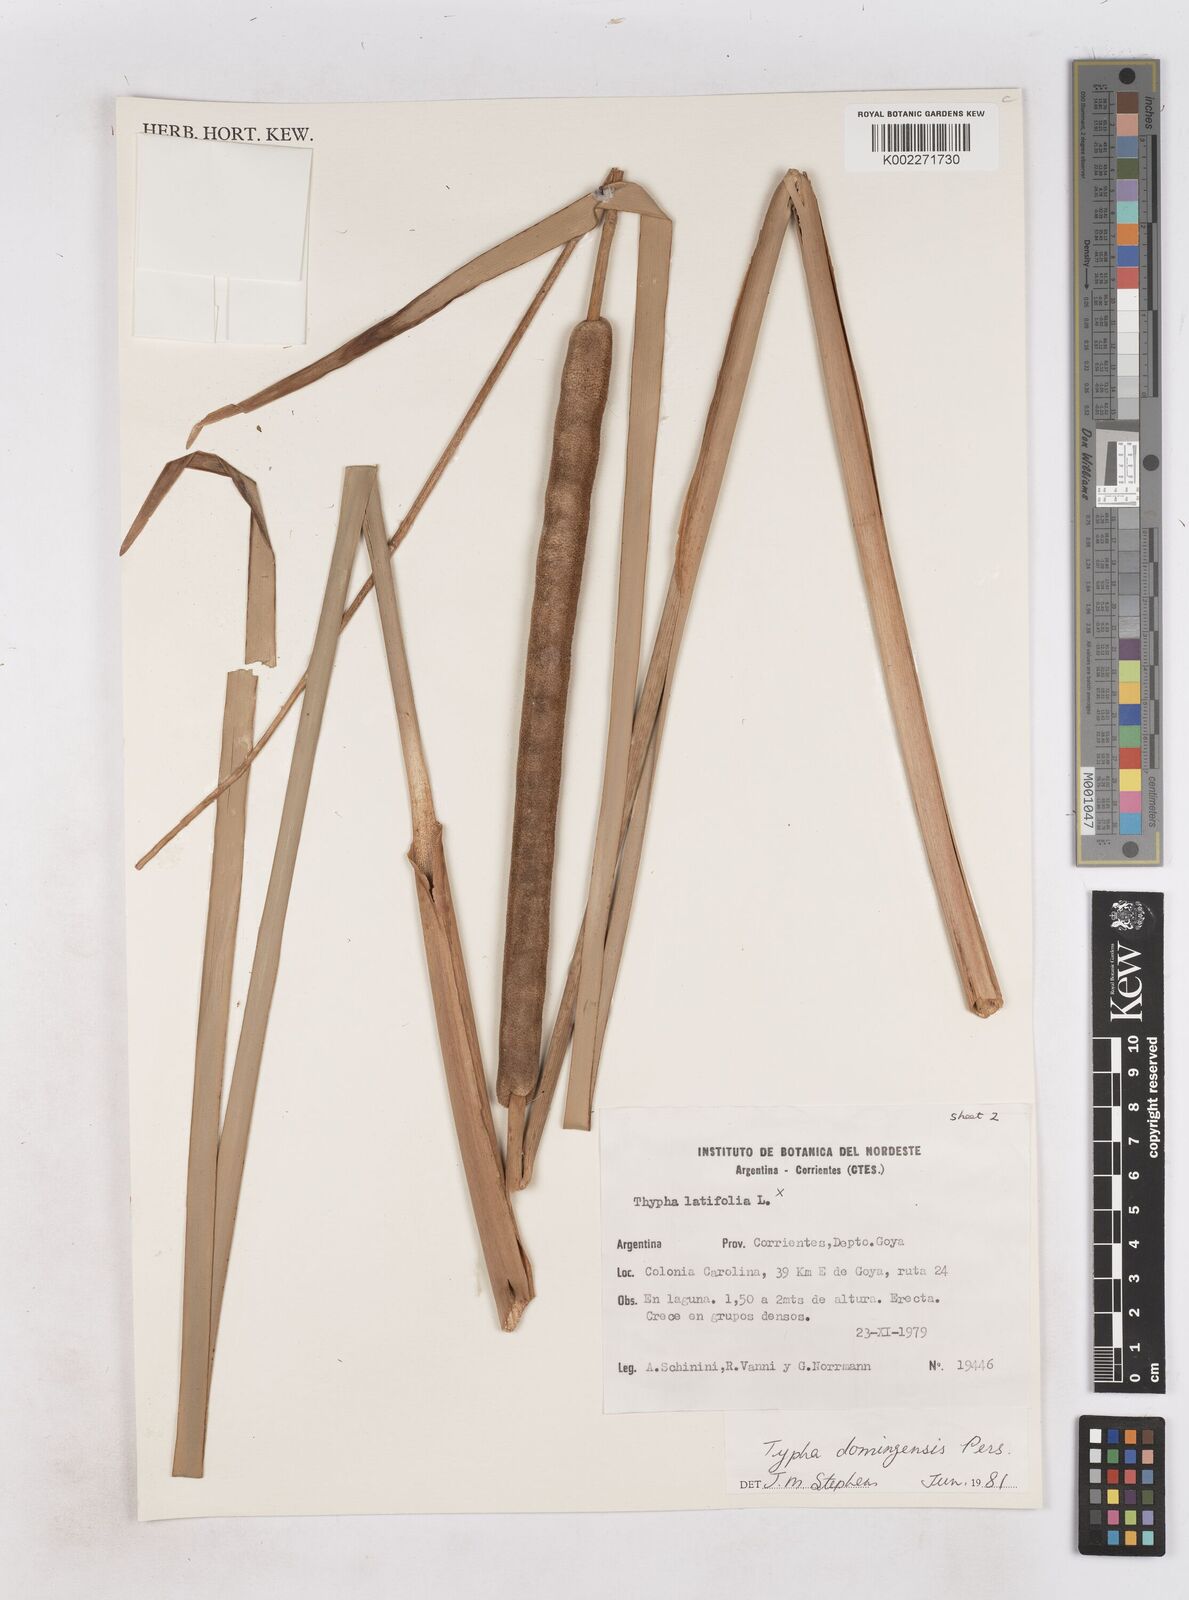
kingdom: Plantae
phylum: Tracheophyta
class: Liliopsida
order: Poales
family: Typhaceae
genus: Typha
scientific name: Typha domingensis
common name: Southern cattail
